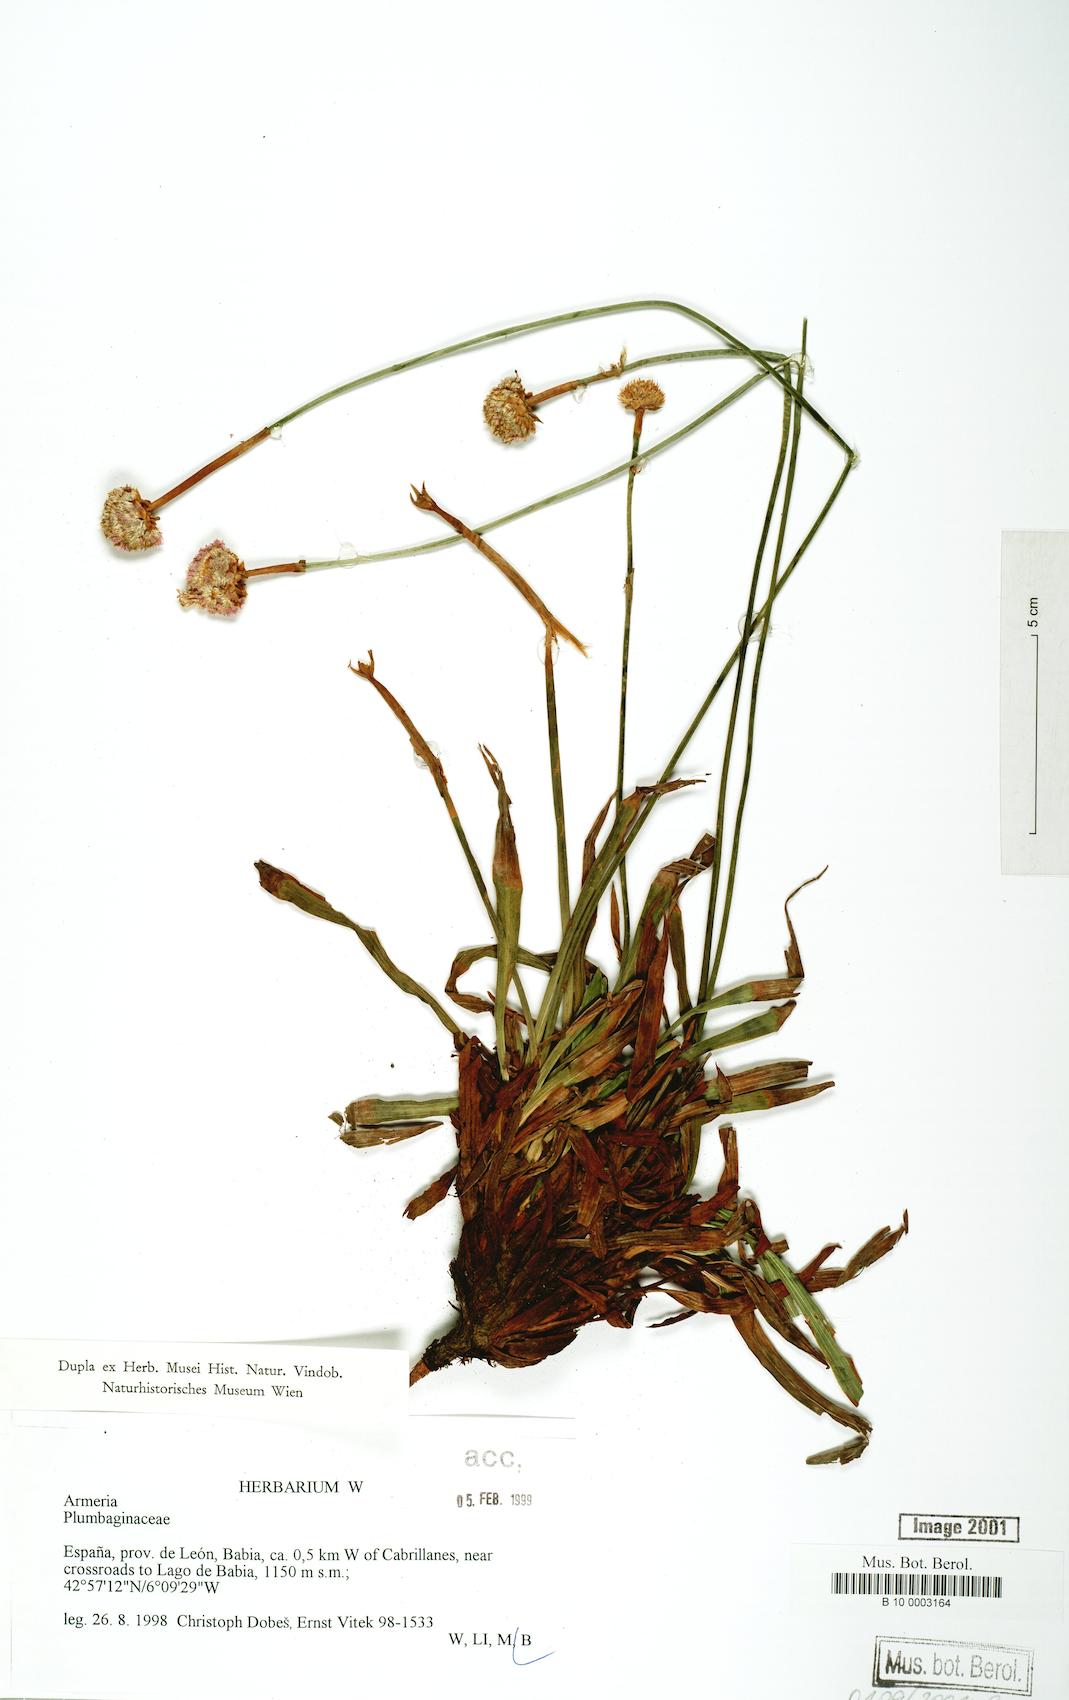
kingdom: Plantae
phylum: Tracheophyta
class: Magnoliopsida
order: Caryophyllales
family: Plumbaginaceae
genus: Armeria
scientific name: Armeria
